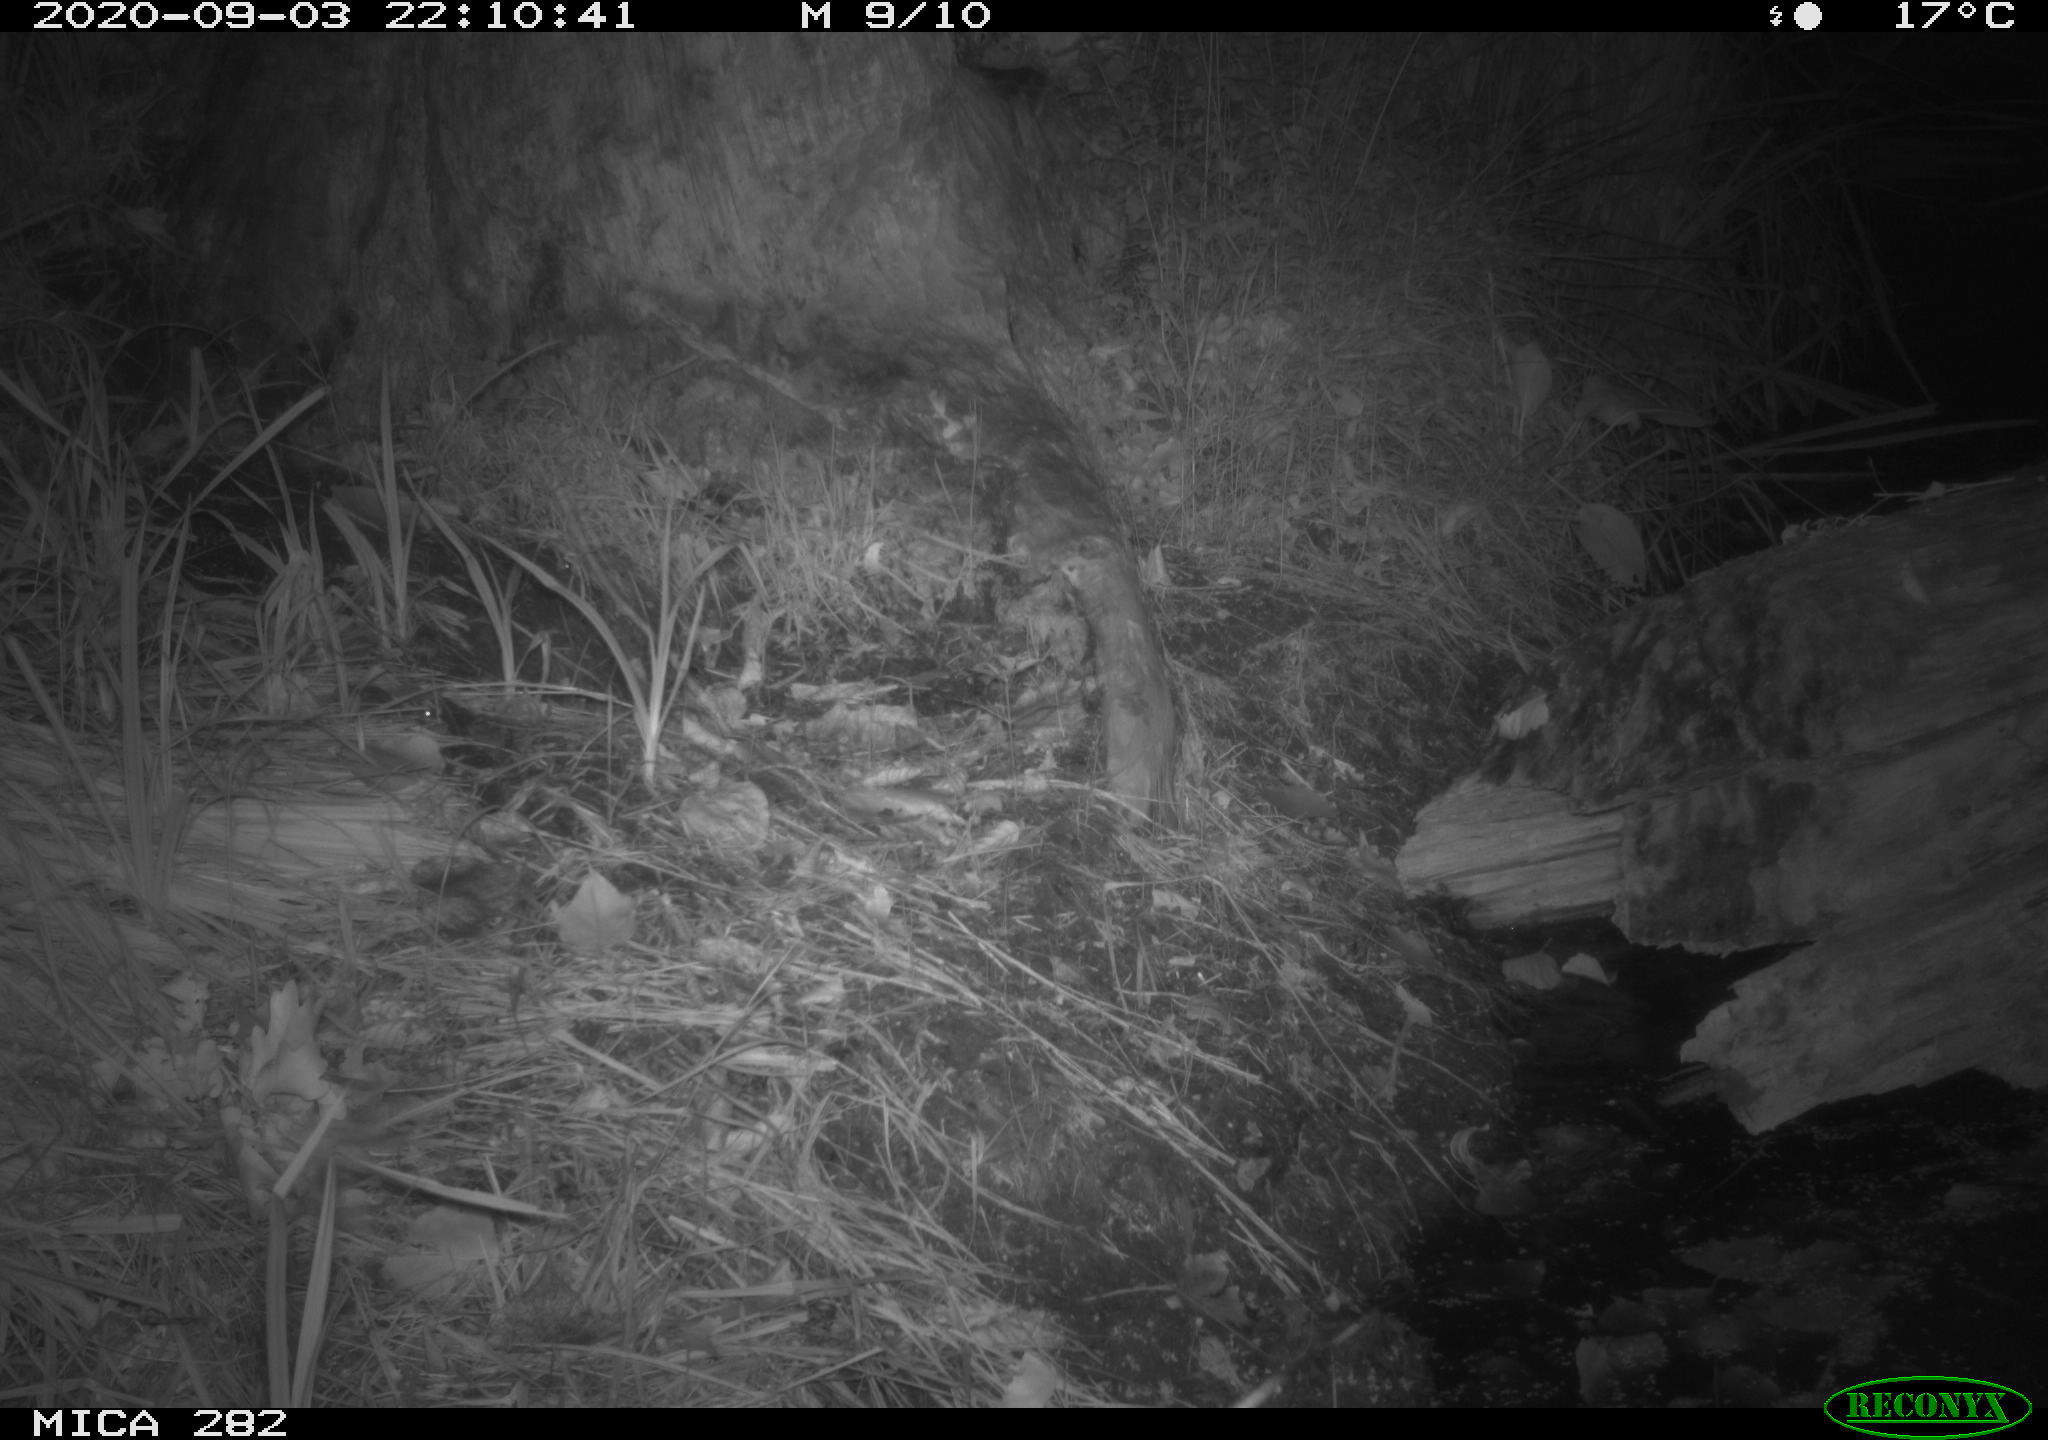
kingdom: Animalia
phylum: Chordata
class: Mammalia
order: Carnivora
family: Canidae
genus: Vulpes
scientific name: Vulpes vulpes
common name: Red fox
